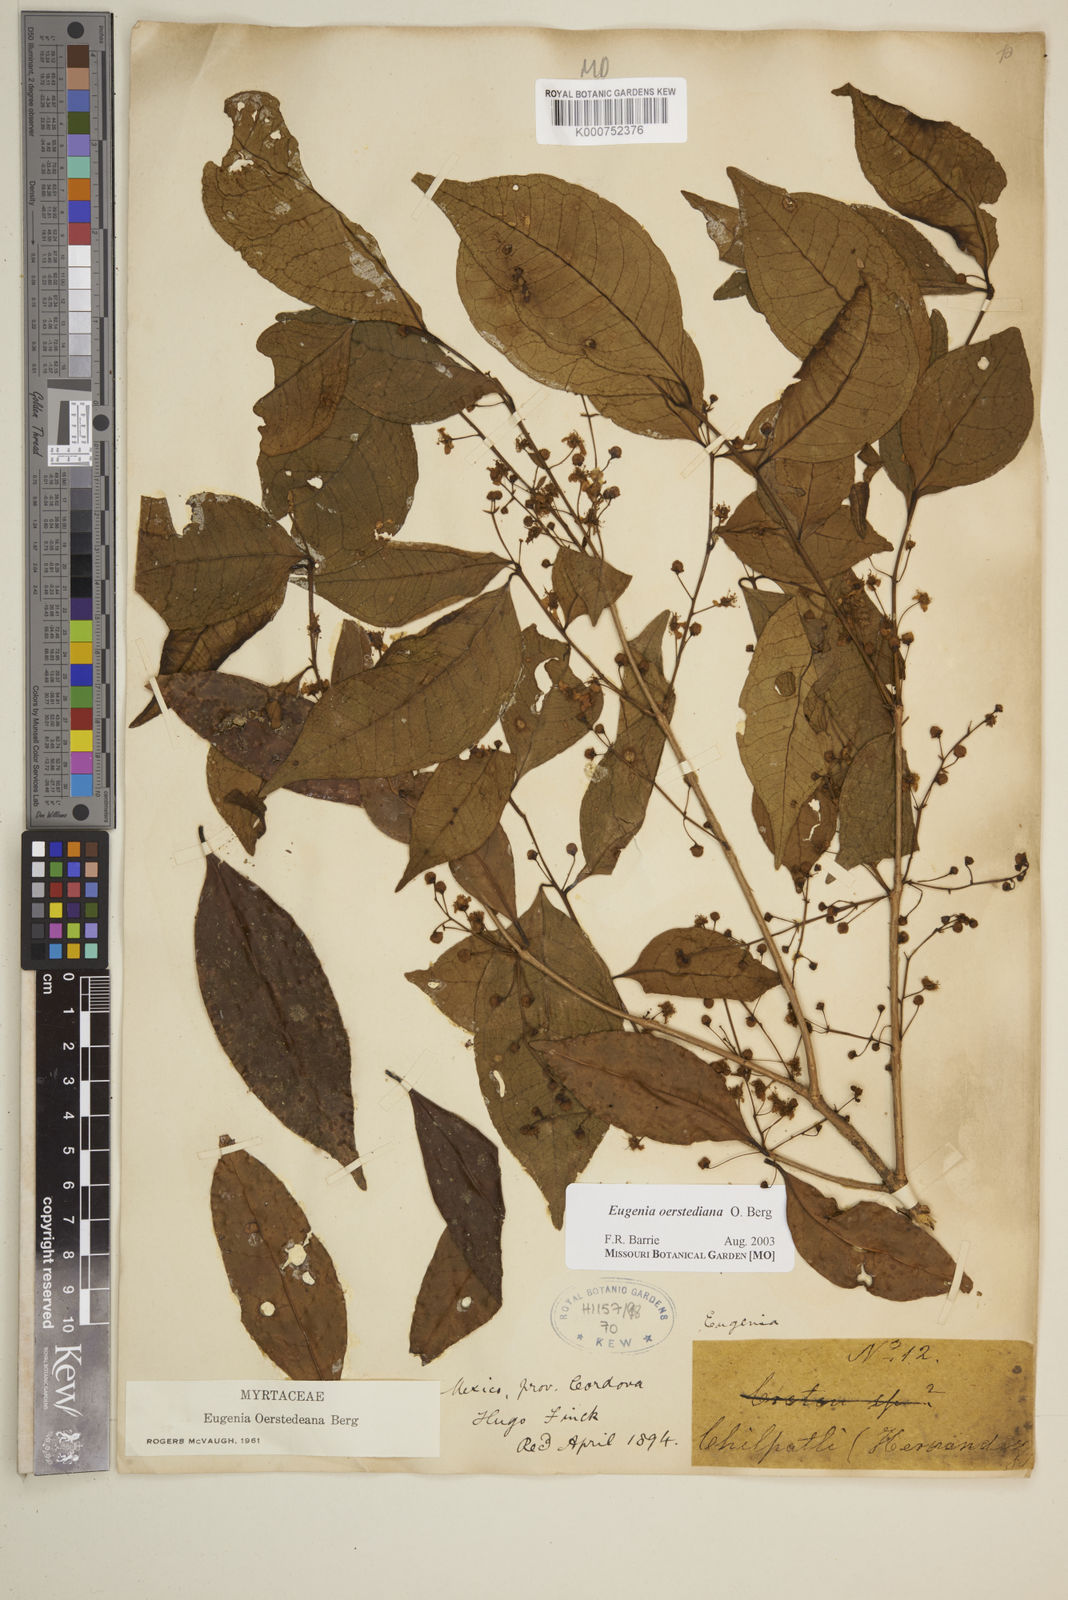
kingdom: Plantae
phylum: Tracheophyta
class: Magnoliopsida
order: Myrtales
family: Myrtaceae
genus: Eugenia
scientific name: Eugenia oerstediana
